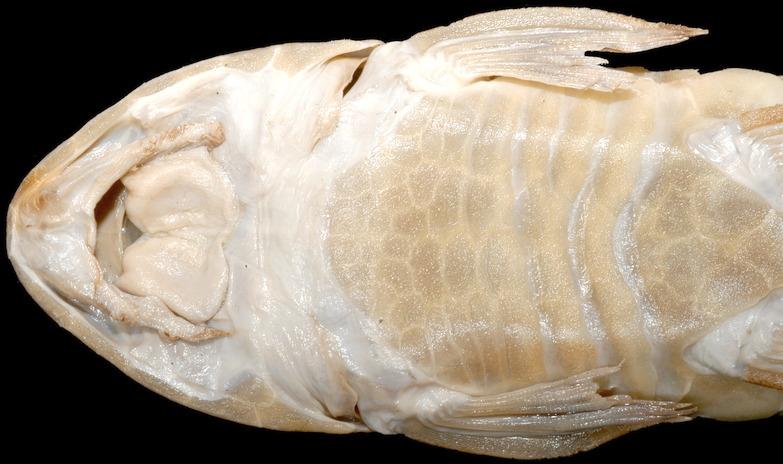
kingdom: Animalia
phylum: Chordata
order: Siluriformes
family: Loricariidae
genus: Loricariichthys
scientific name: Loricariichthys platymetopon
